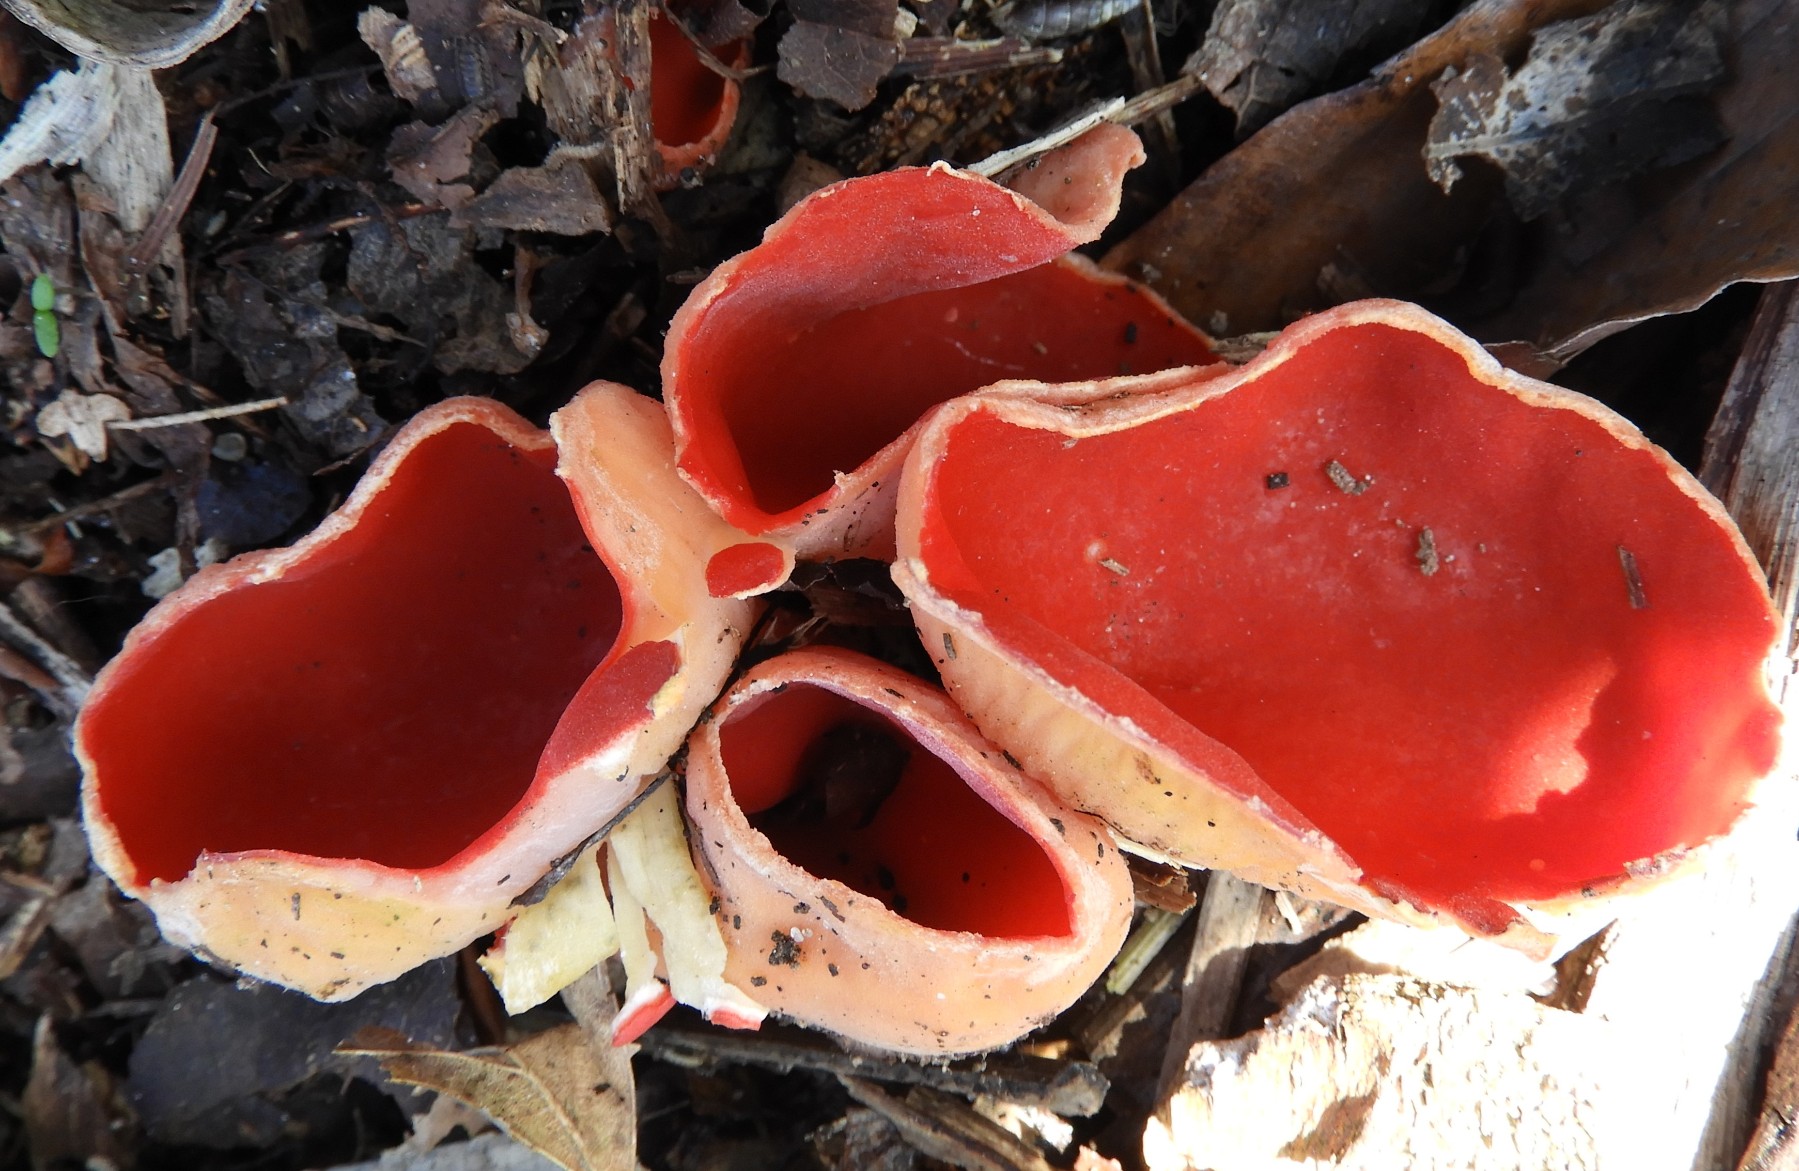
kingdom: Fungi
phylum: Ascomycota
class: Pezizomycetes
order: Pezizales
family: Sarcoscyphaceae
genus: Sarcoscypha
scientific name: Sarcoscypha austriaca
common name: krølhåret pragtbæger
